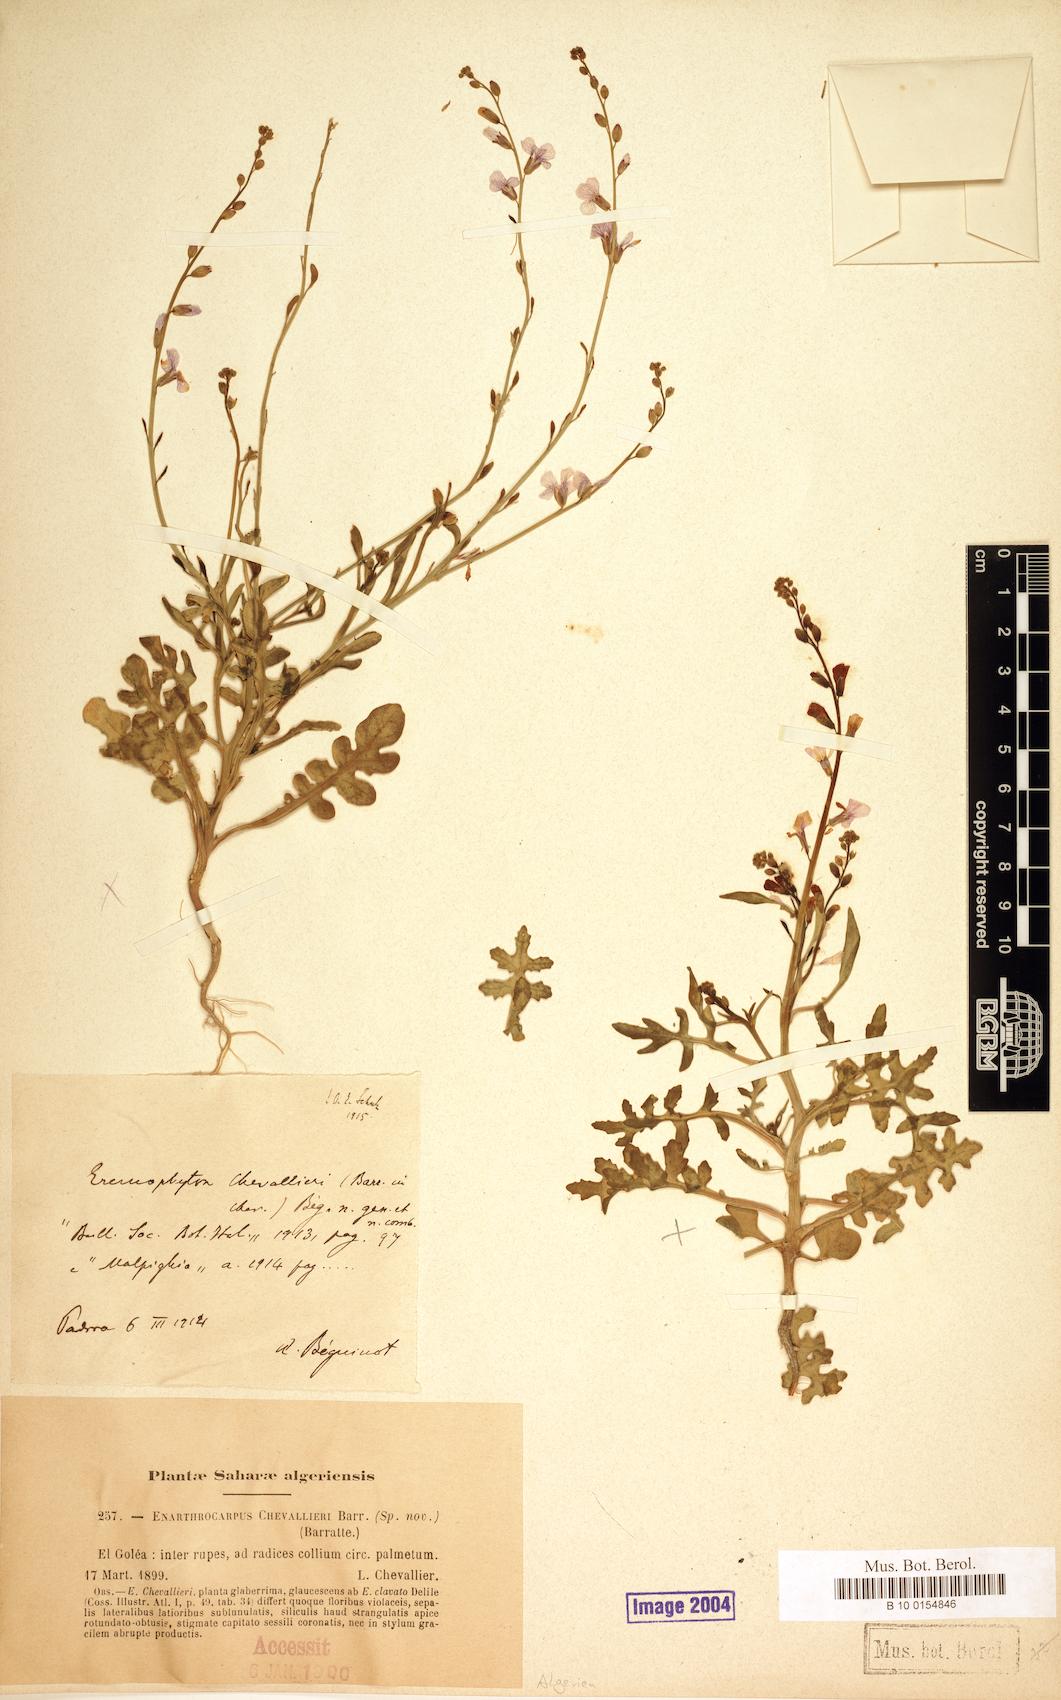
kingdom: Plantae
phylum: Tracheophyta
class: Magnoliopsida
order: Brassicales
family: Brassicaceae
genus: Eremophyton
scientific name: Eremophyton chevallieri
